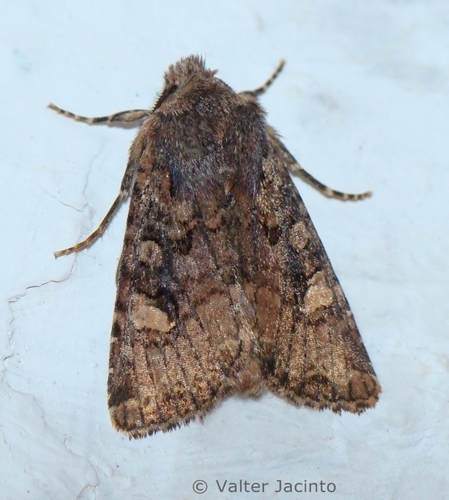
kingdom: Animalia
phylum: Arthropoda
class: Insecta
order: Lepidoptera
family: Noctuidae
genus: Dryobota
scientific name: Dryobota labecula
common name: Oak rustic
